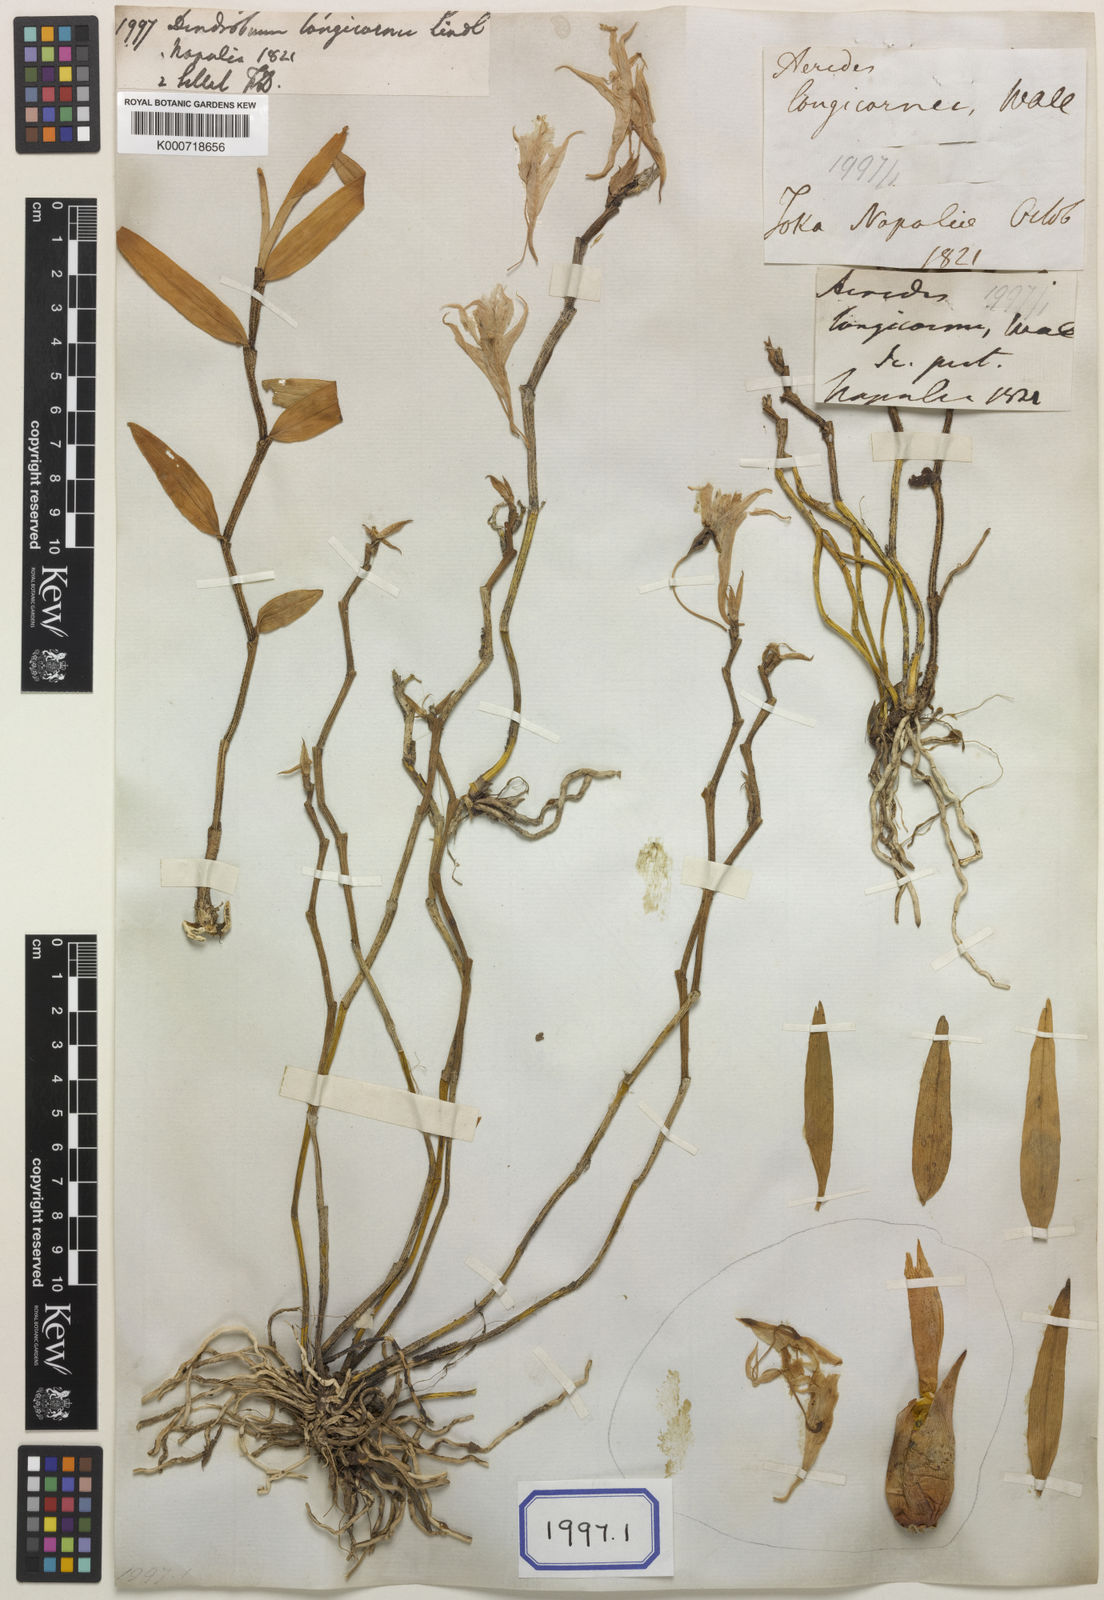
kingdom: Plantae
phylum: Tracheophyta
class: Liliopsida
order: Asparagales
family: Orchidaceae
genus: Dendrobium
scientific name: Dendrobium longicornu
